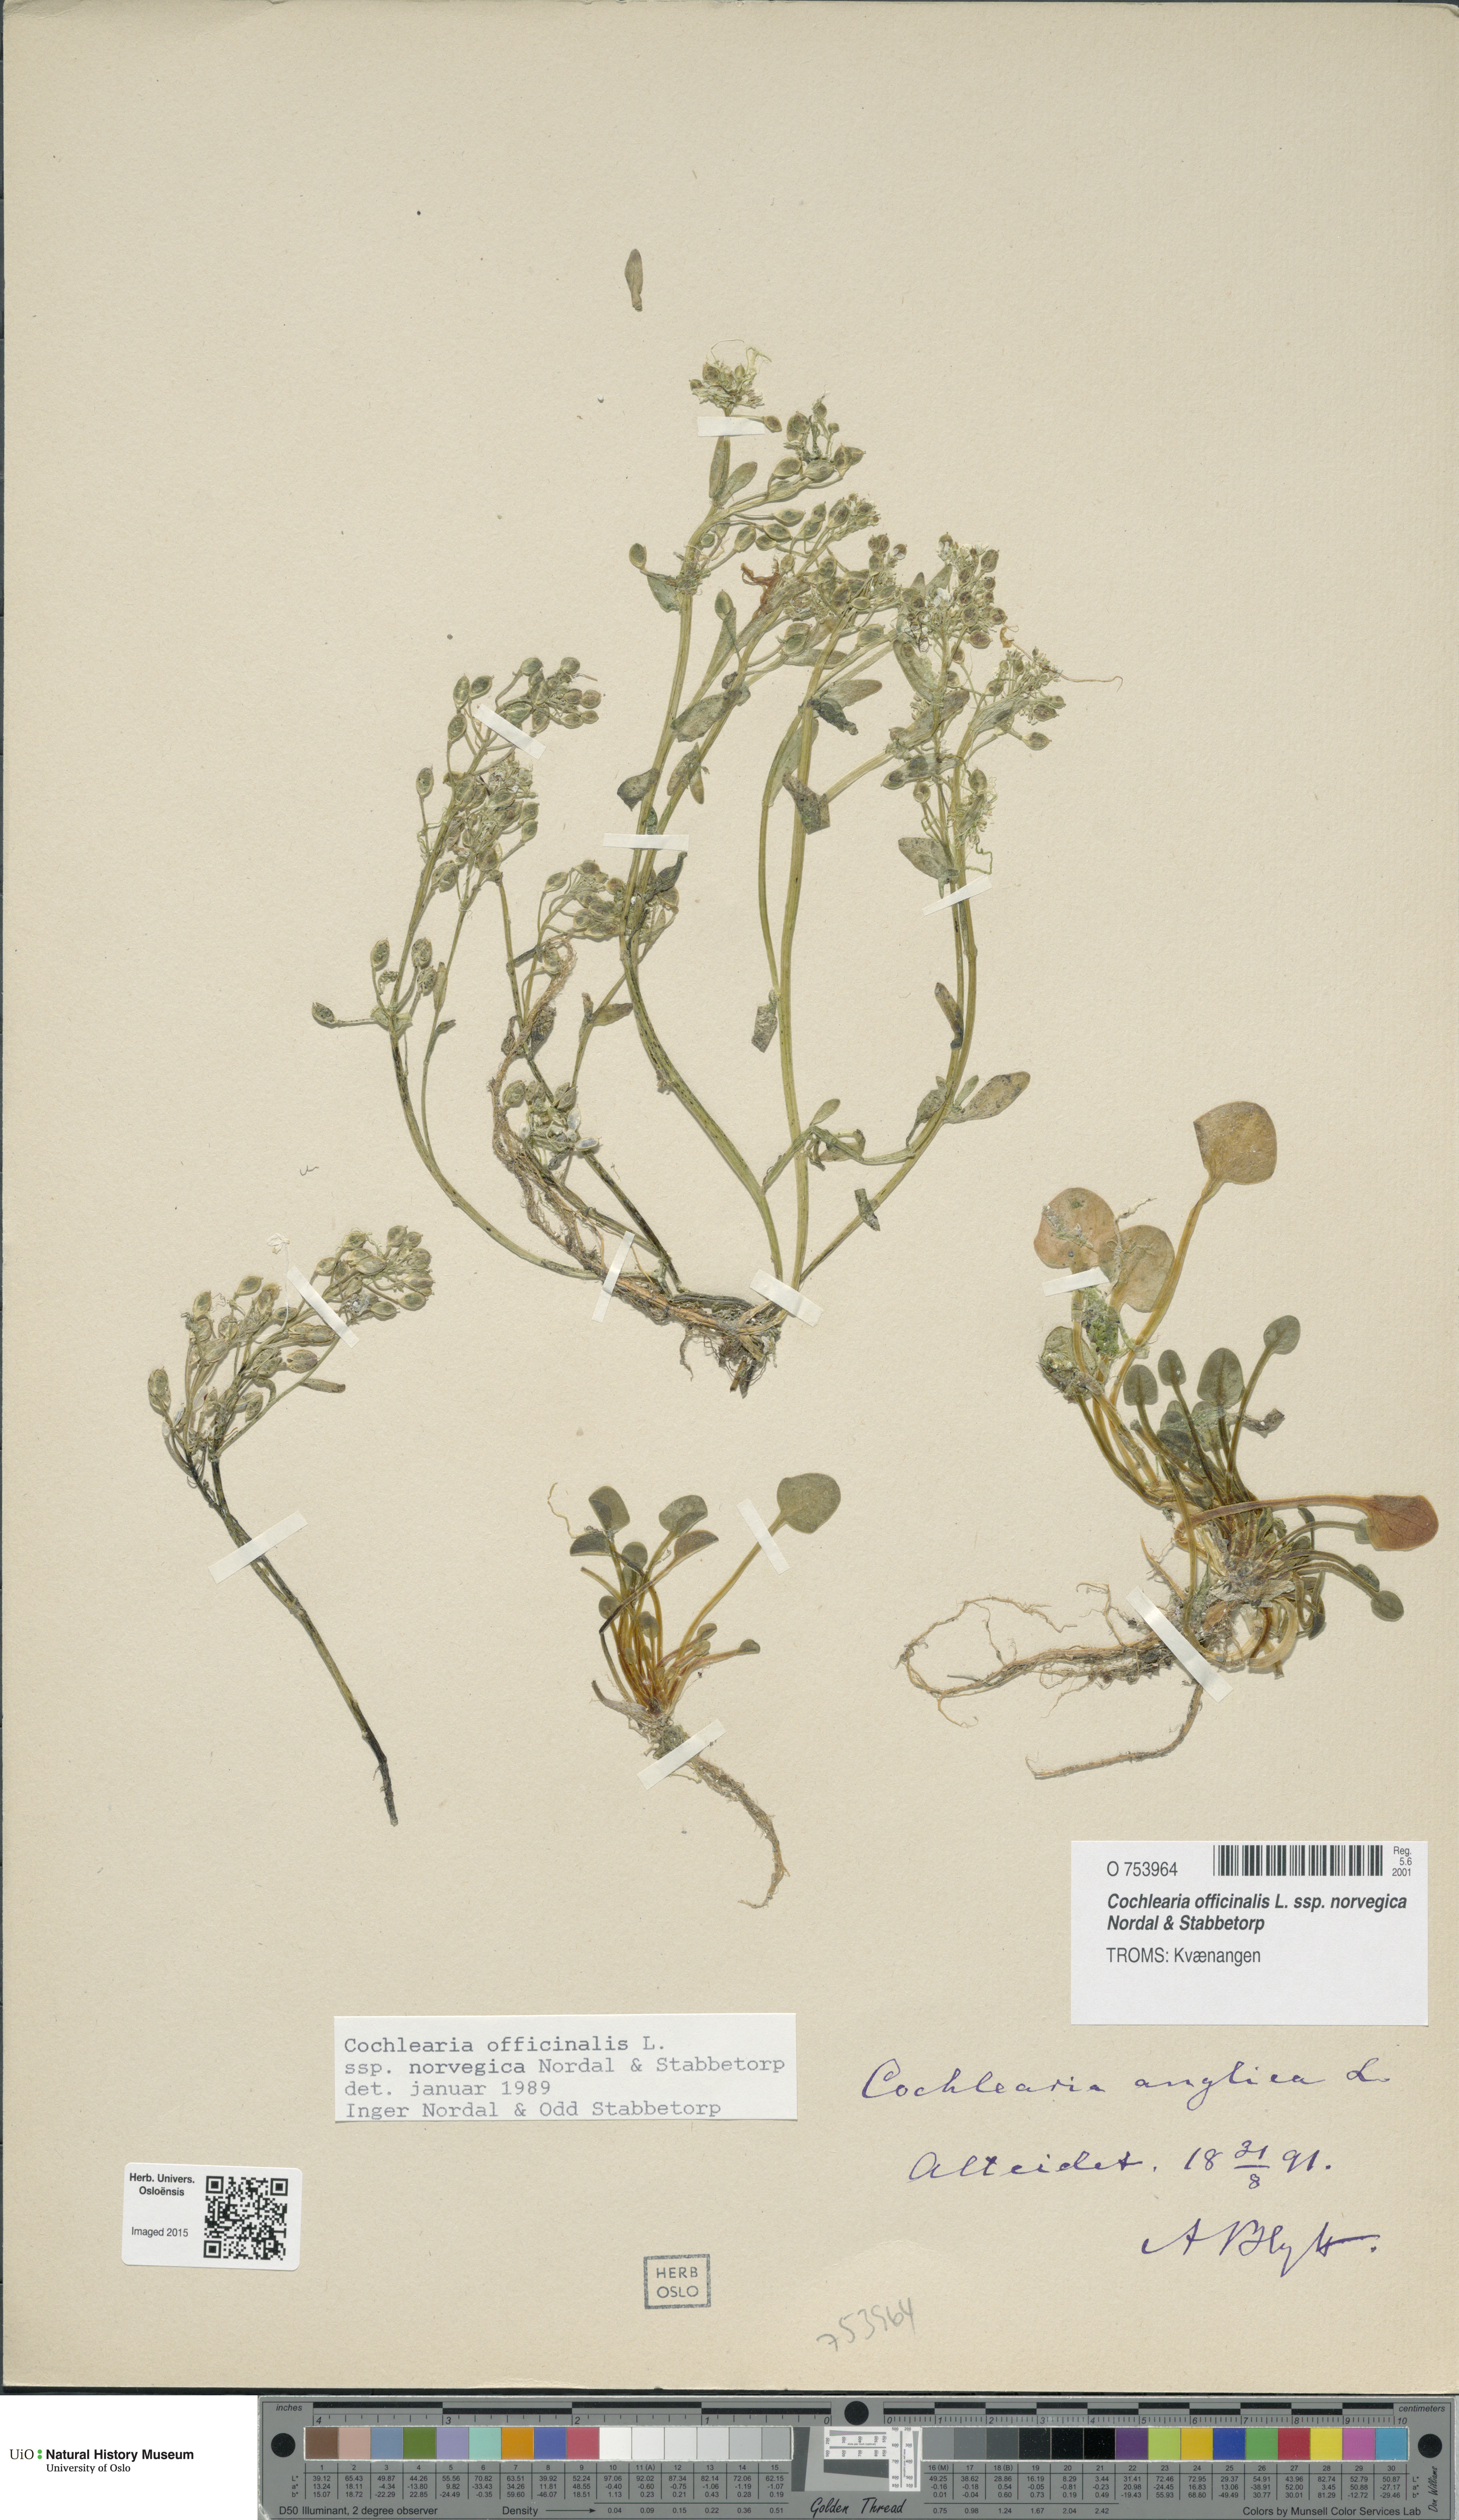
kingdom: Plantae
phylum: Tracheophyta
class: Magnoliopsida
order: Brassicales
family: Brassicaceae
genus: Cochlearia
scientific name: Cochlearia officinalis
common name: Scurvy-grass
